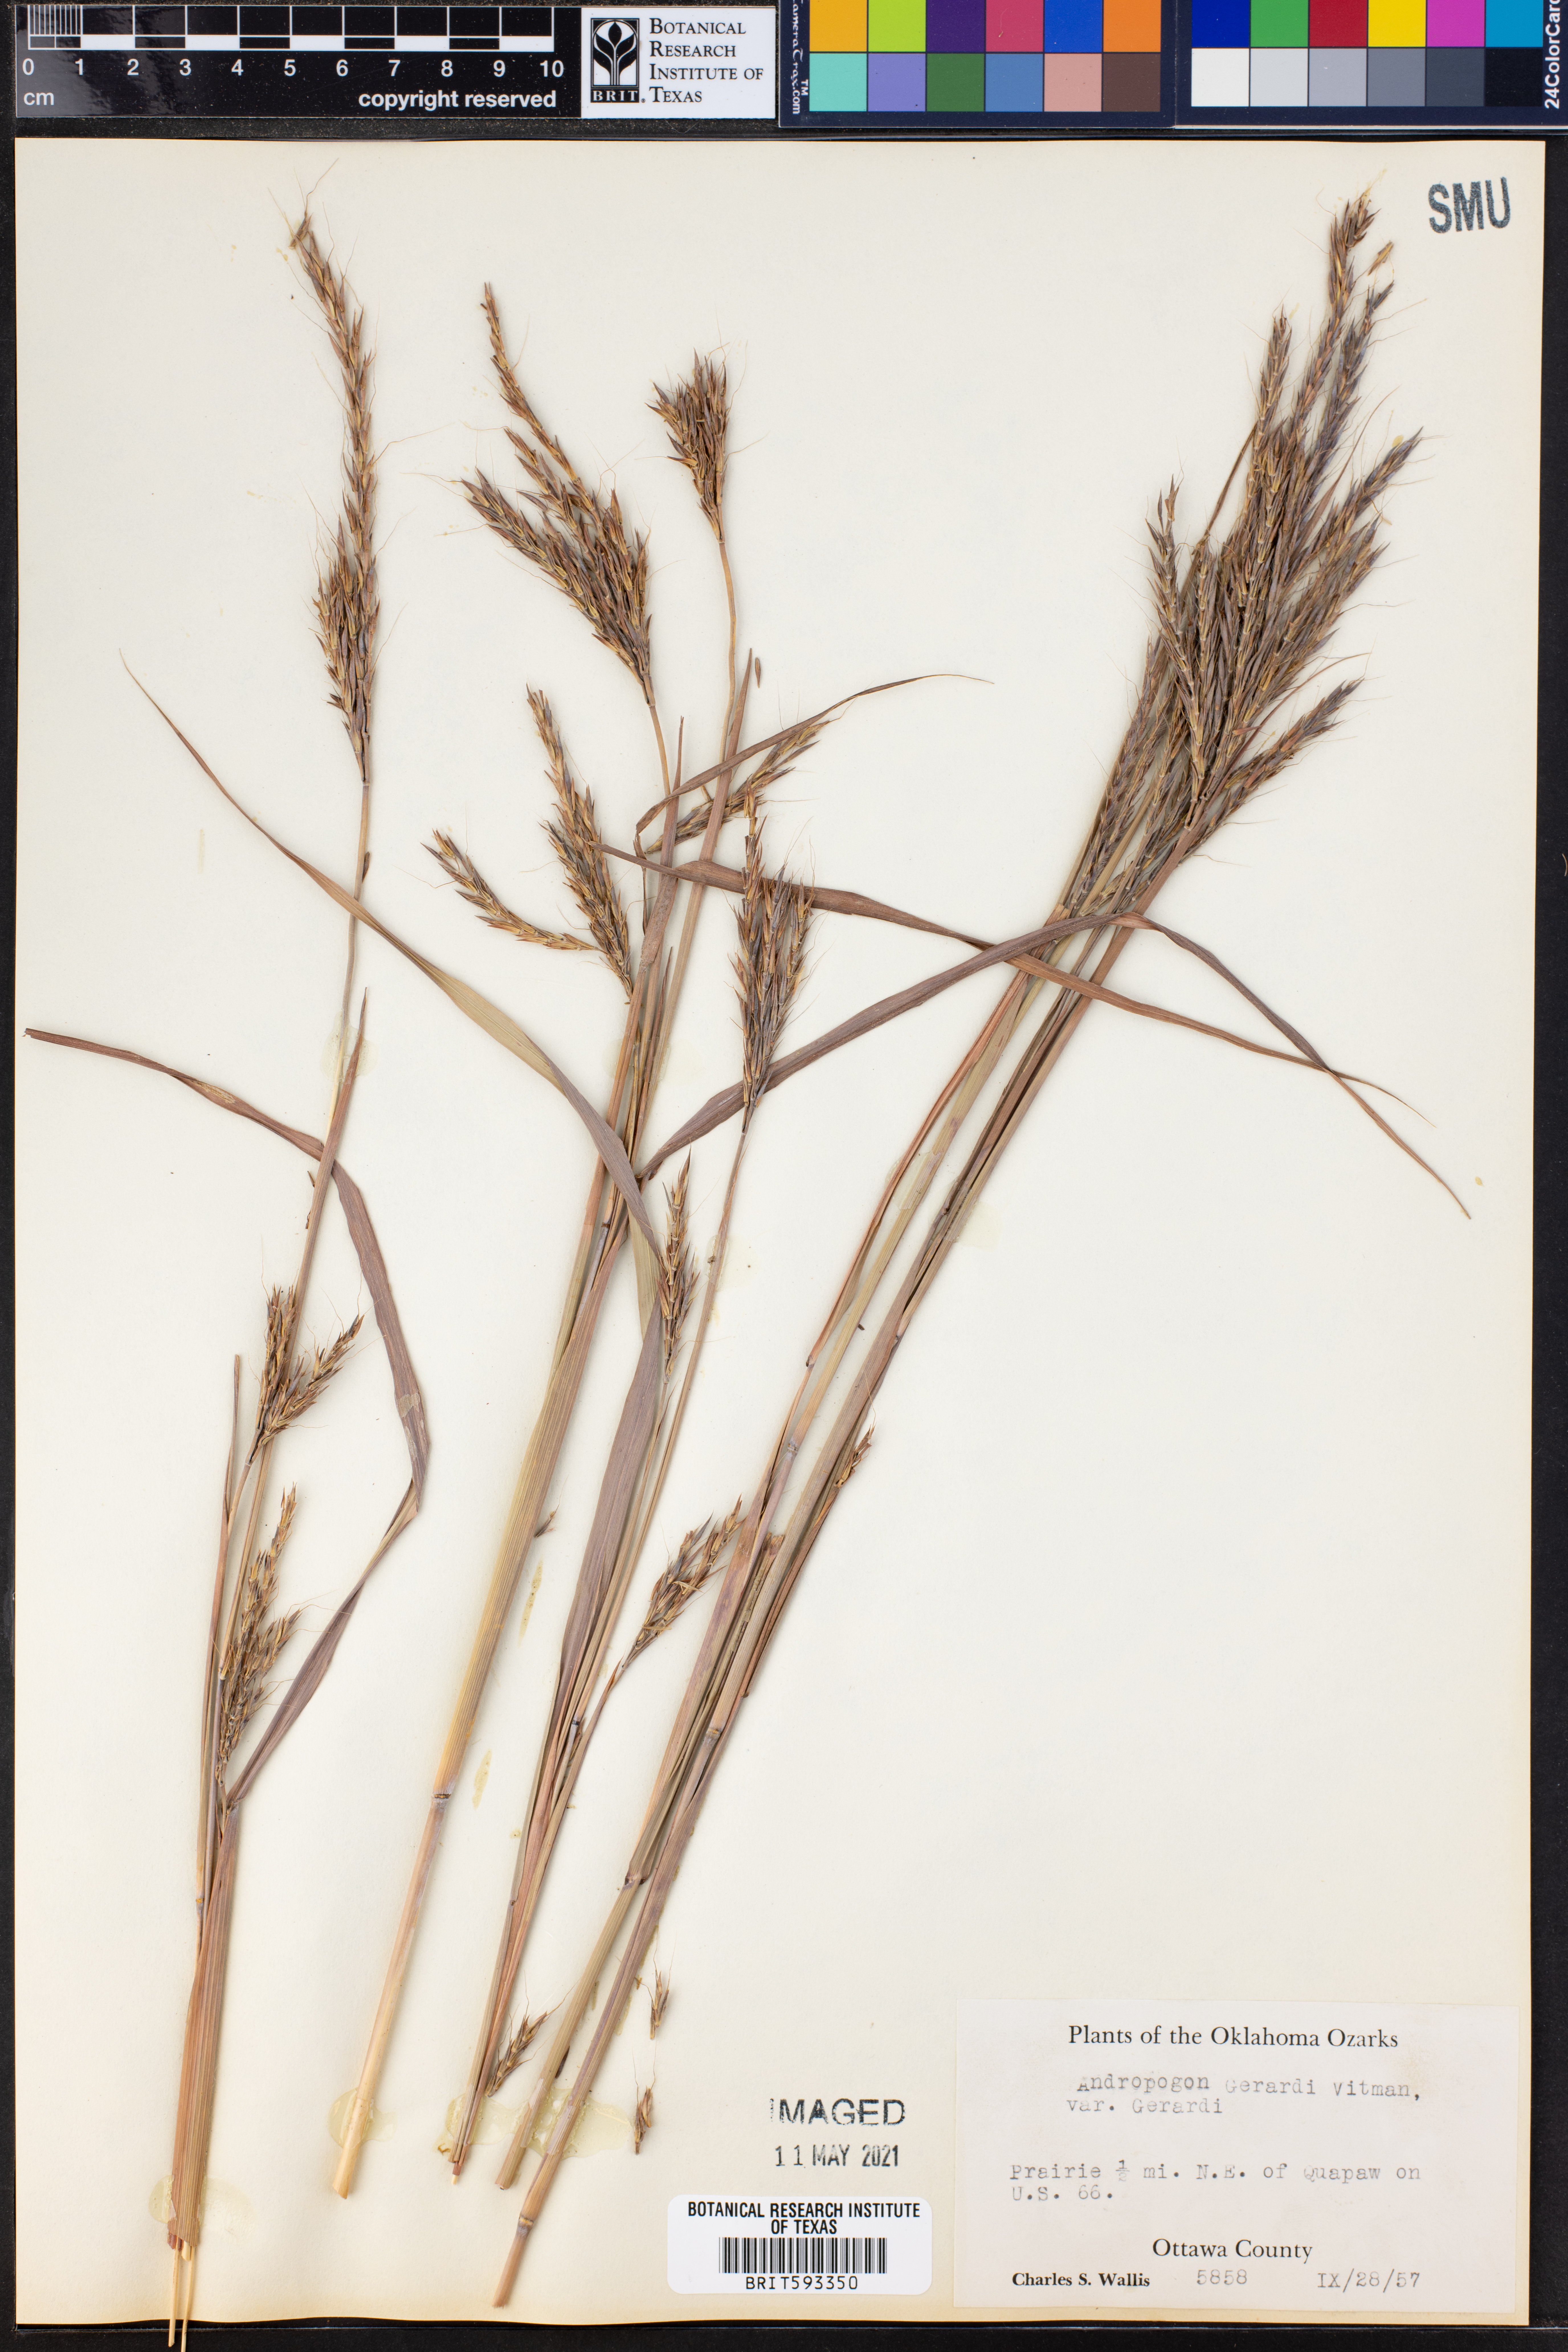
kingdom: Plantae
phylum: Tracheophyta
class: Liliopsida
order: Poales
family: Poaceae
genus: Andropogon
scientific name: Andropogon gerardi
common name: Big bluestem
